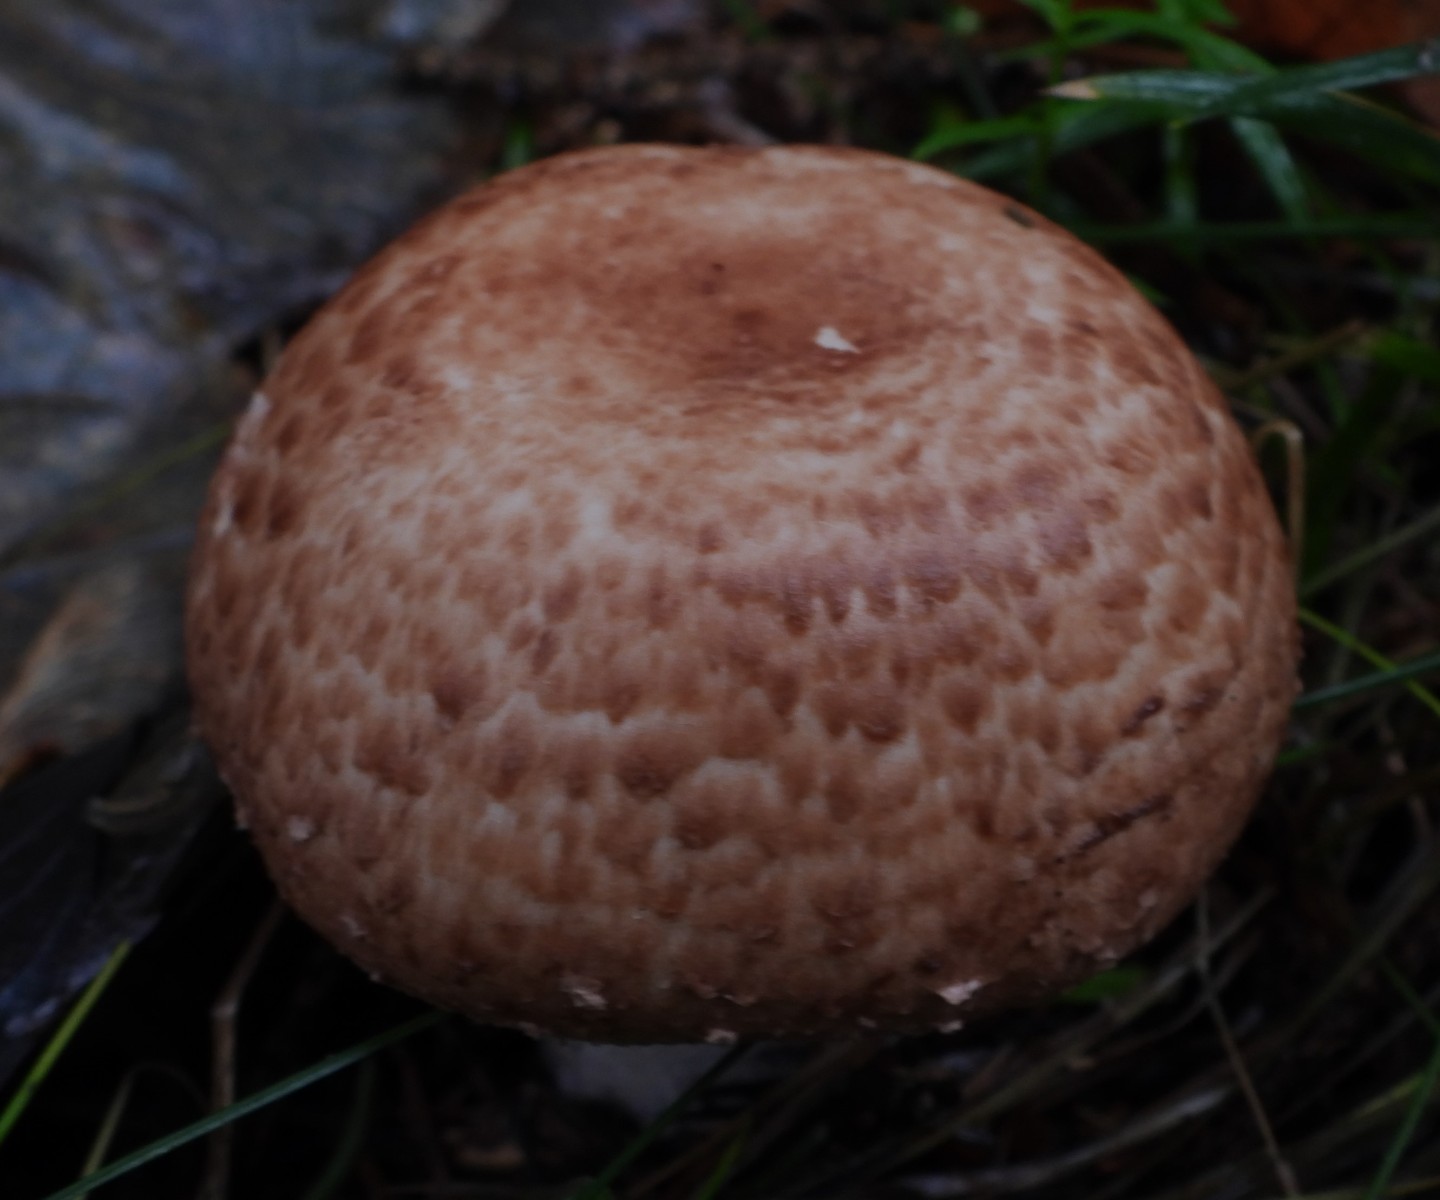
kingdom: Fungi
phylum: Basidiomycota
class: Agaricomycetes
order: Agaricales
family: Agaricaceae
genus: Agaricus
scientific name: Agaricus augustus
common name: prægtig champignon
